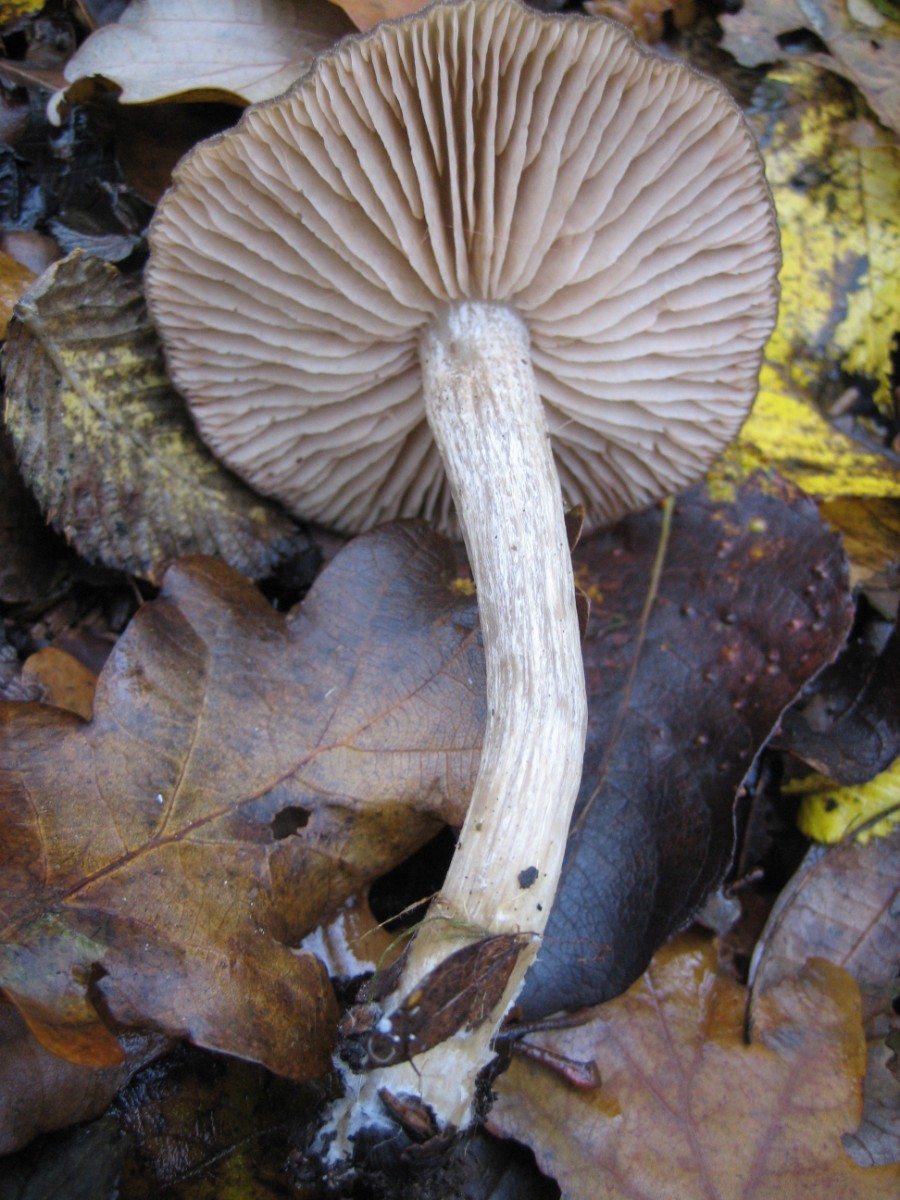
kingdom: Fungi
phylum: Basidiomycota
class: Agaricomycetes
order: Agaricales
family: Entolomataceae
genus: Entoloma
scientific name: Entoloma sordidulum
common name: smudsig rødblad
